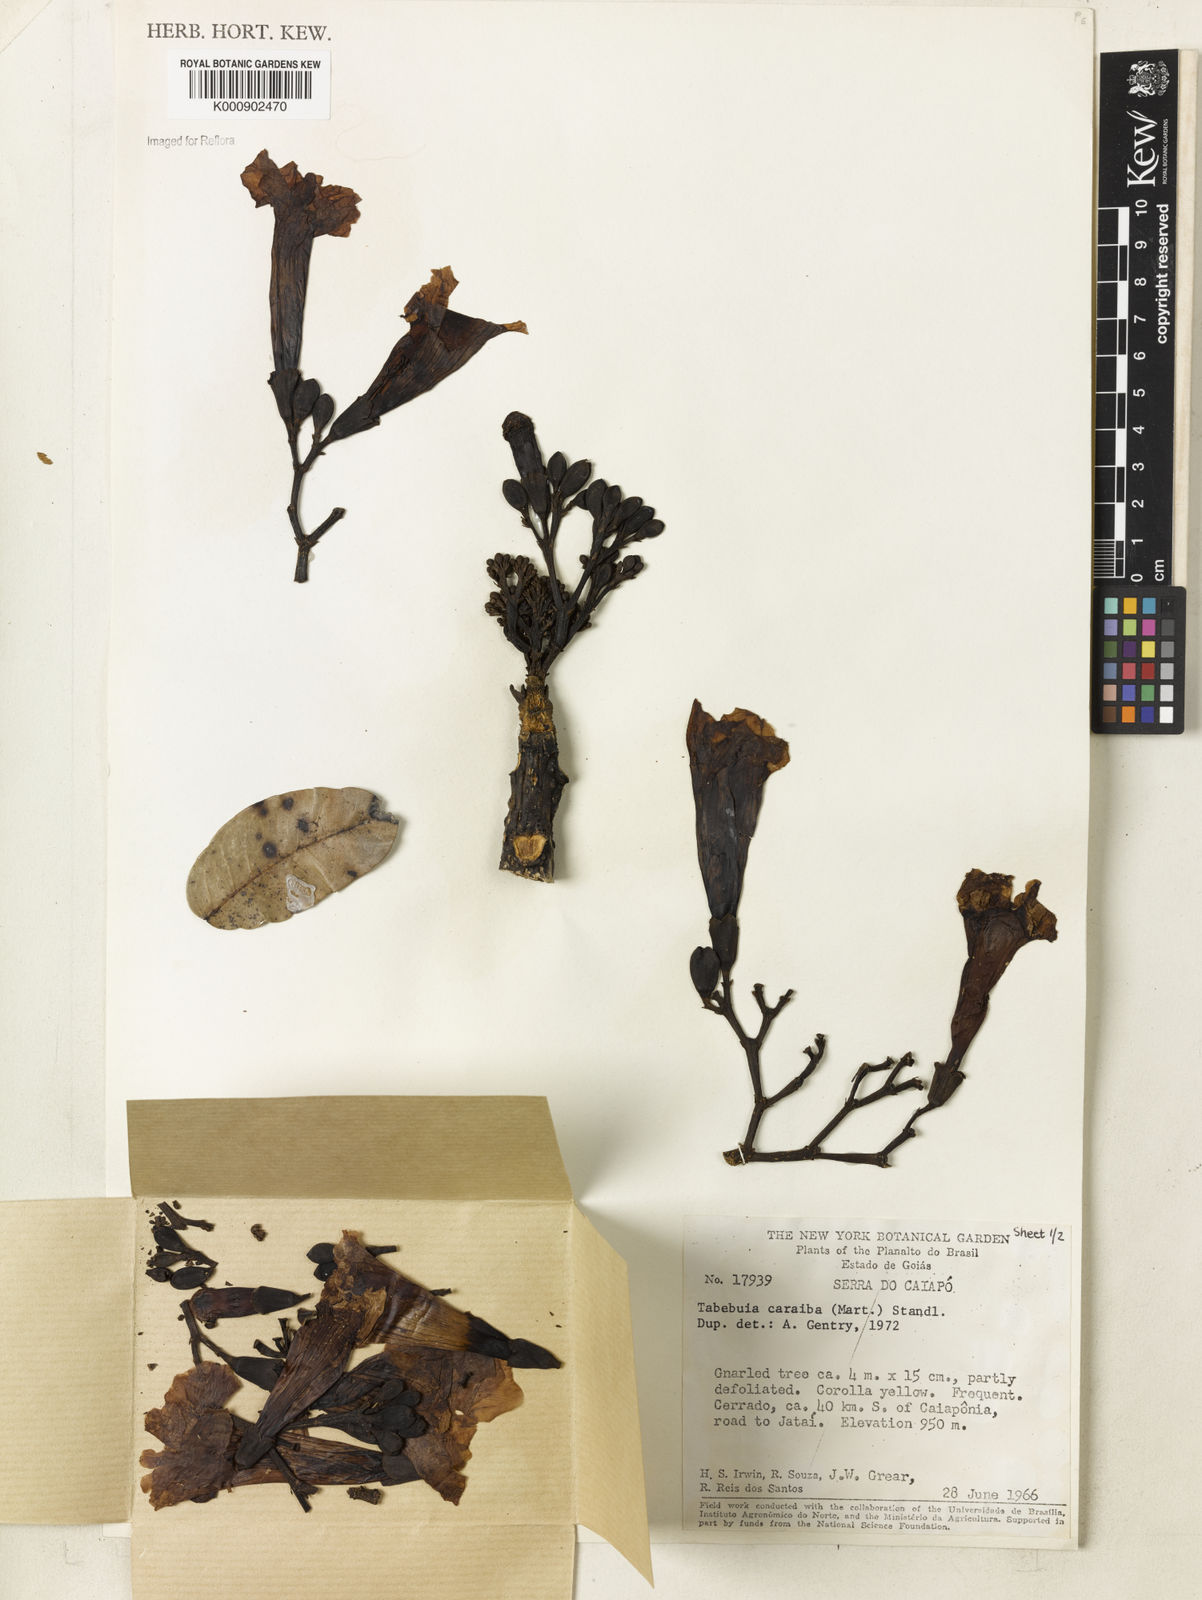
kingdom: Plantae
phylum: Tracheophyta
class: Magnoliopsida
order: Lamiales
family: Bignoniaceae
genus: Tabebuia
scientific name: Tabebuia aurea
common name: Caribbean trumpet-tree
